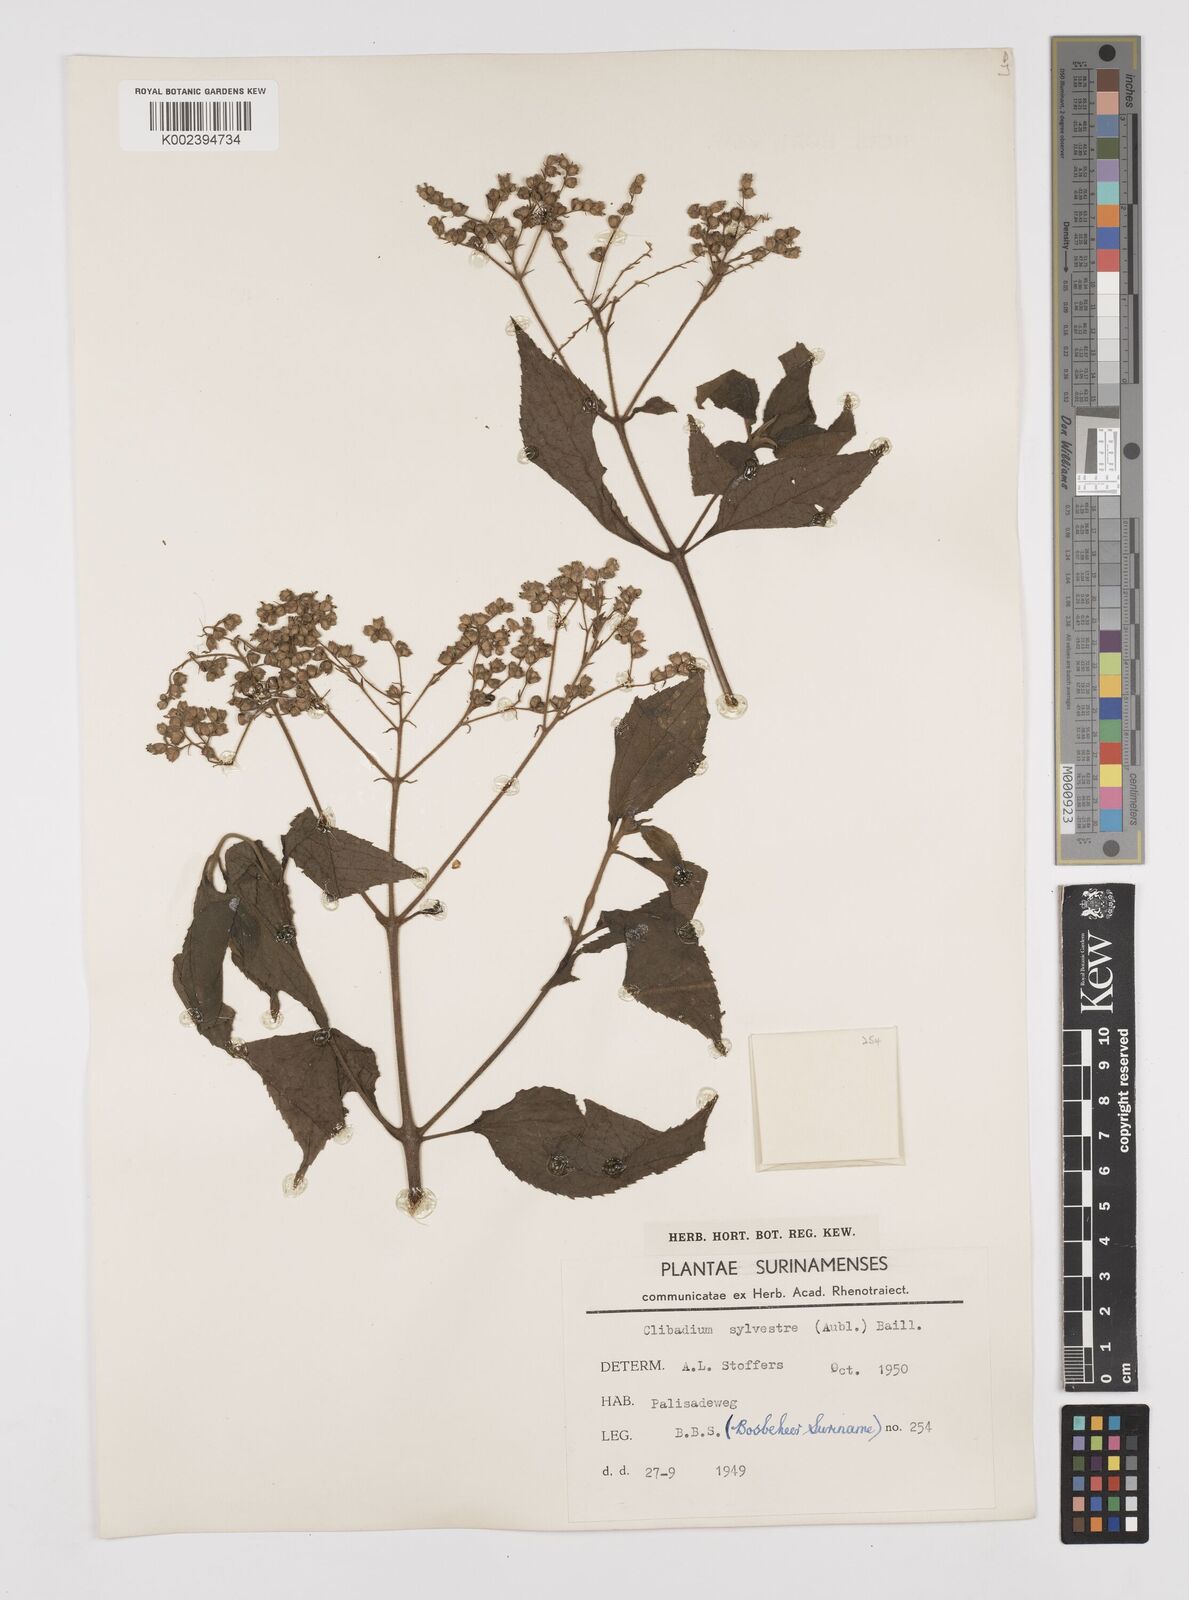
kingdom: Plantae
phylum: Tracheophyta
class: Magnoliopsida
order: Asterales
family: Asteraceae
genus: Clibadium
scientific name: Clibadium surinamense
